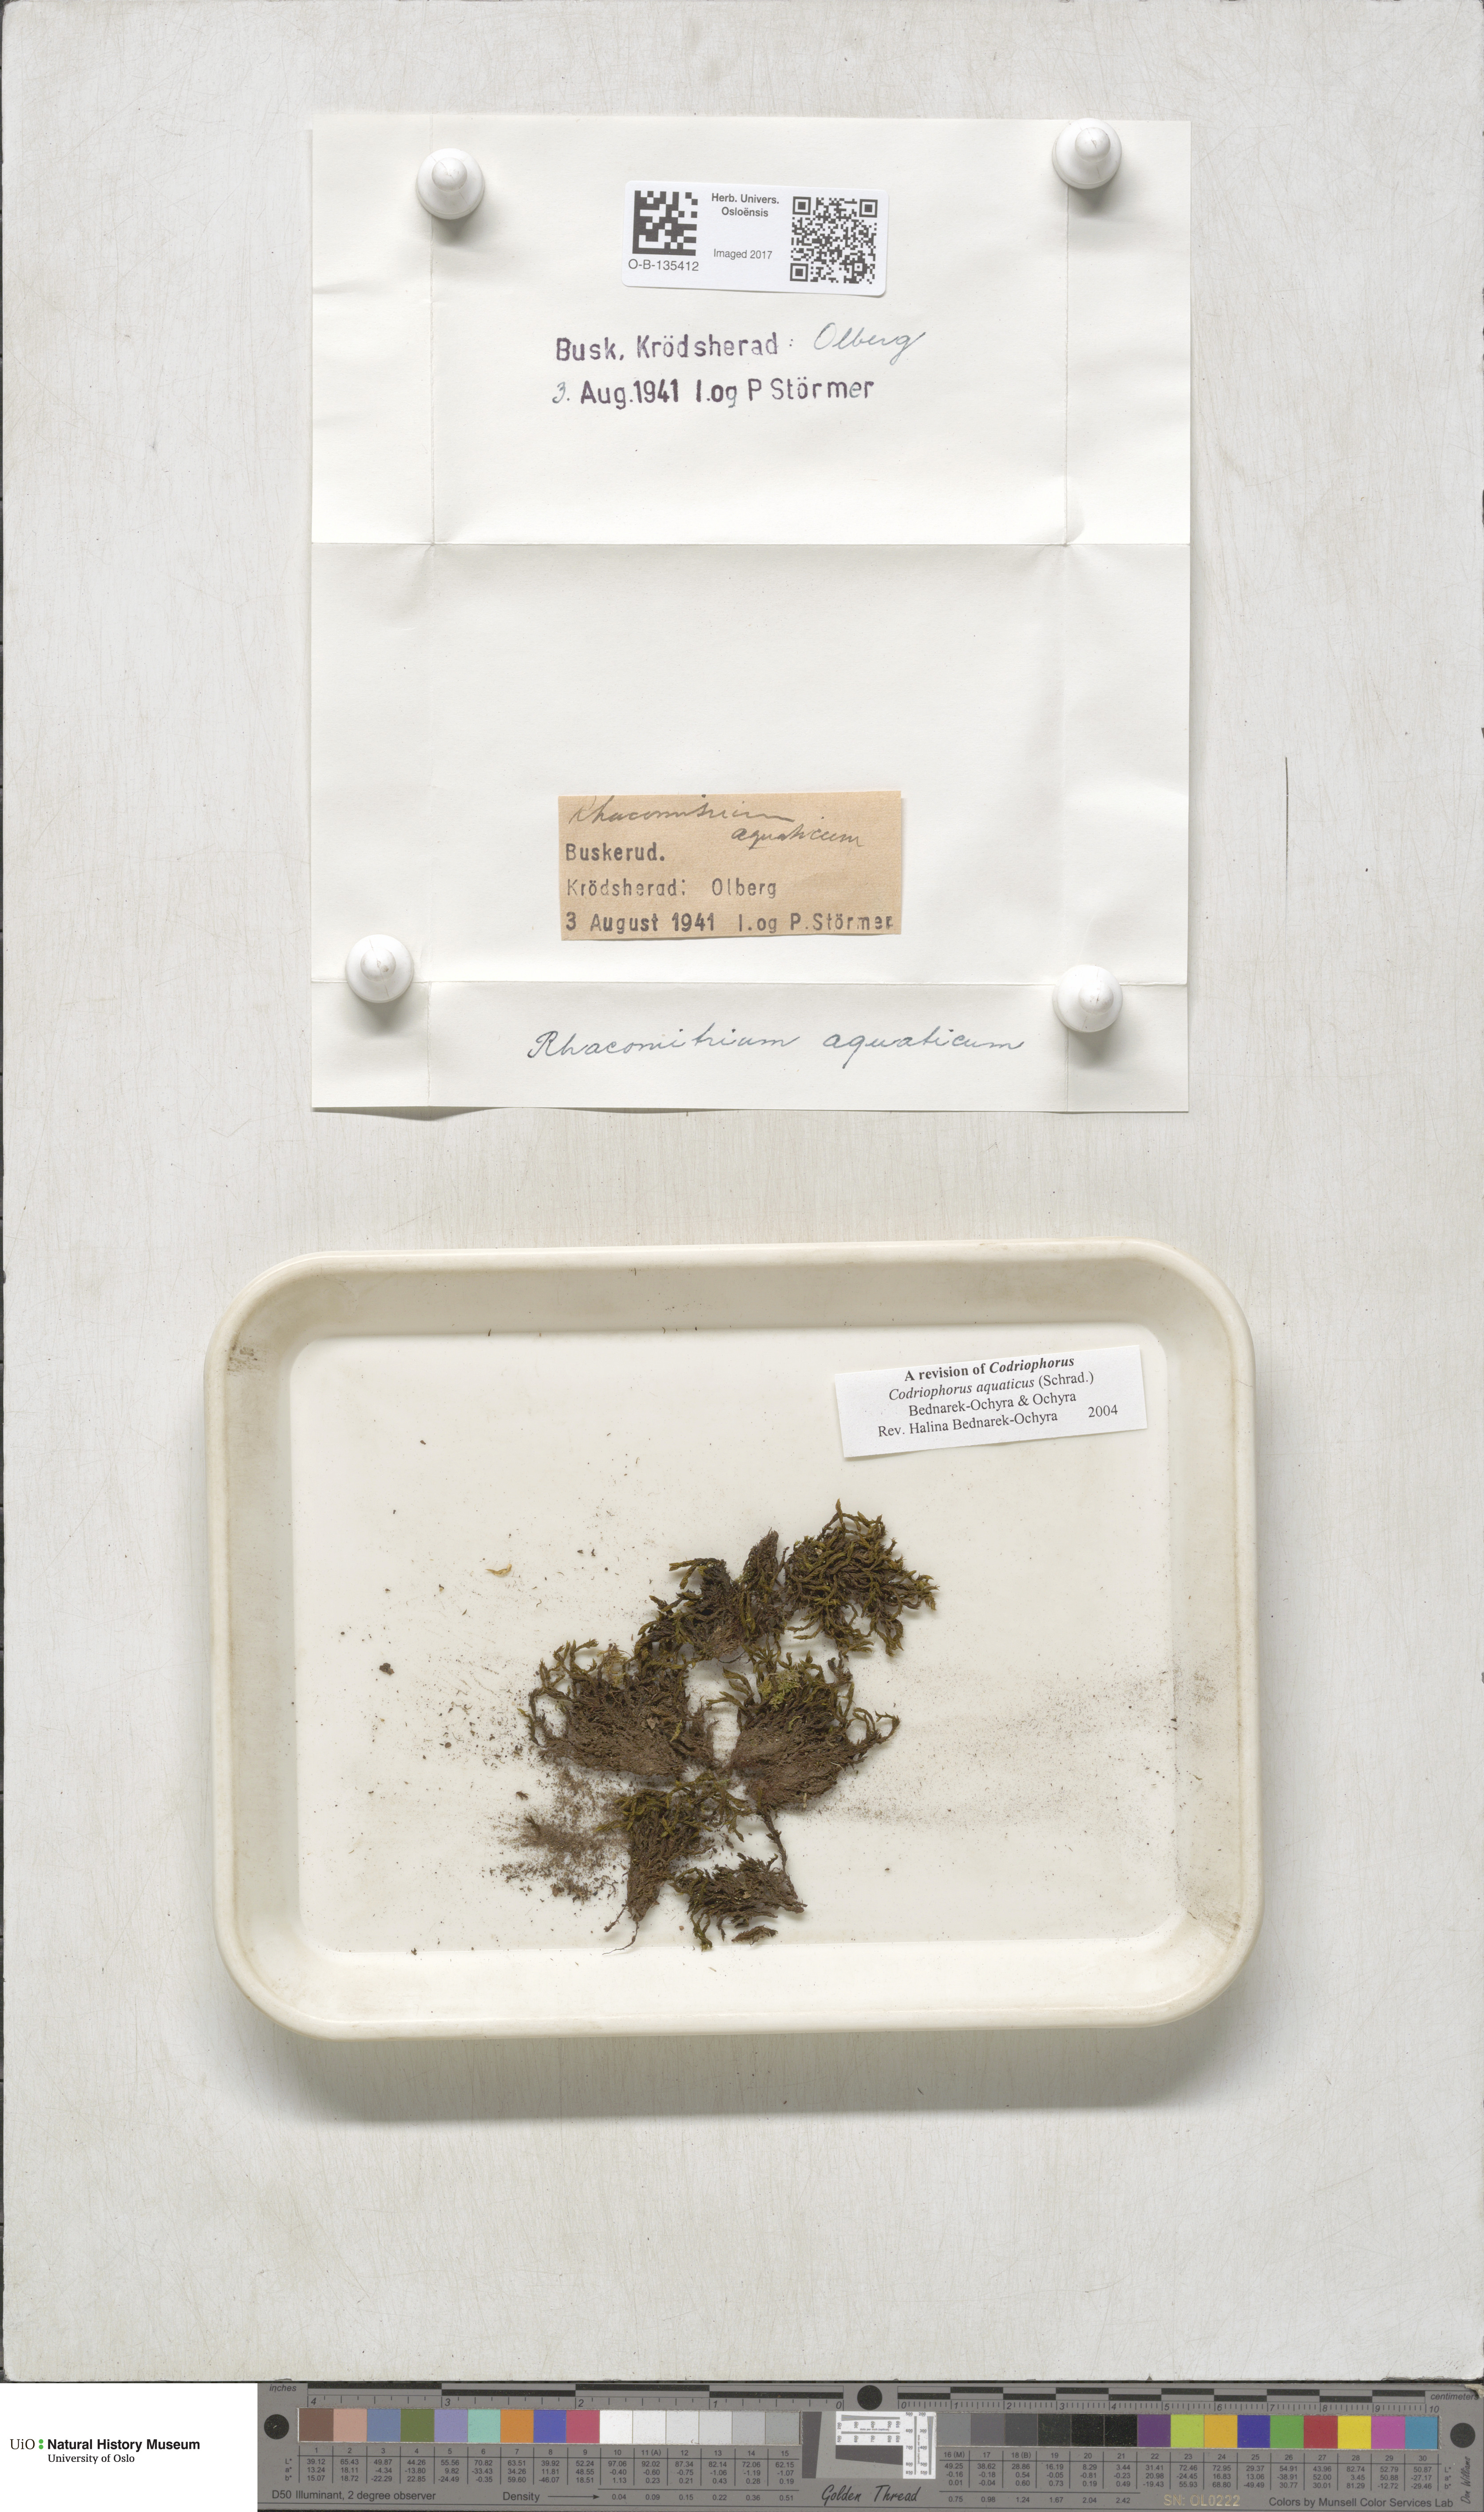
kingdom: Plantae
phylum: Bryophyta
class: Bryopsida
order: Grimmiales
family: Grimmiaceae
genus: Codriophorus
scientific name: Codriophorus aquaticus
